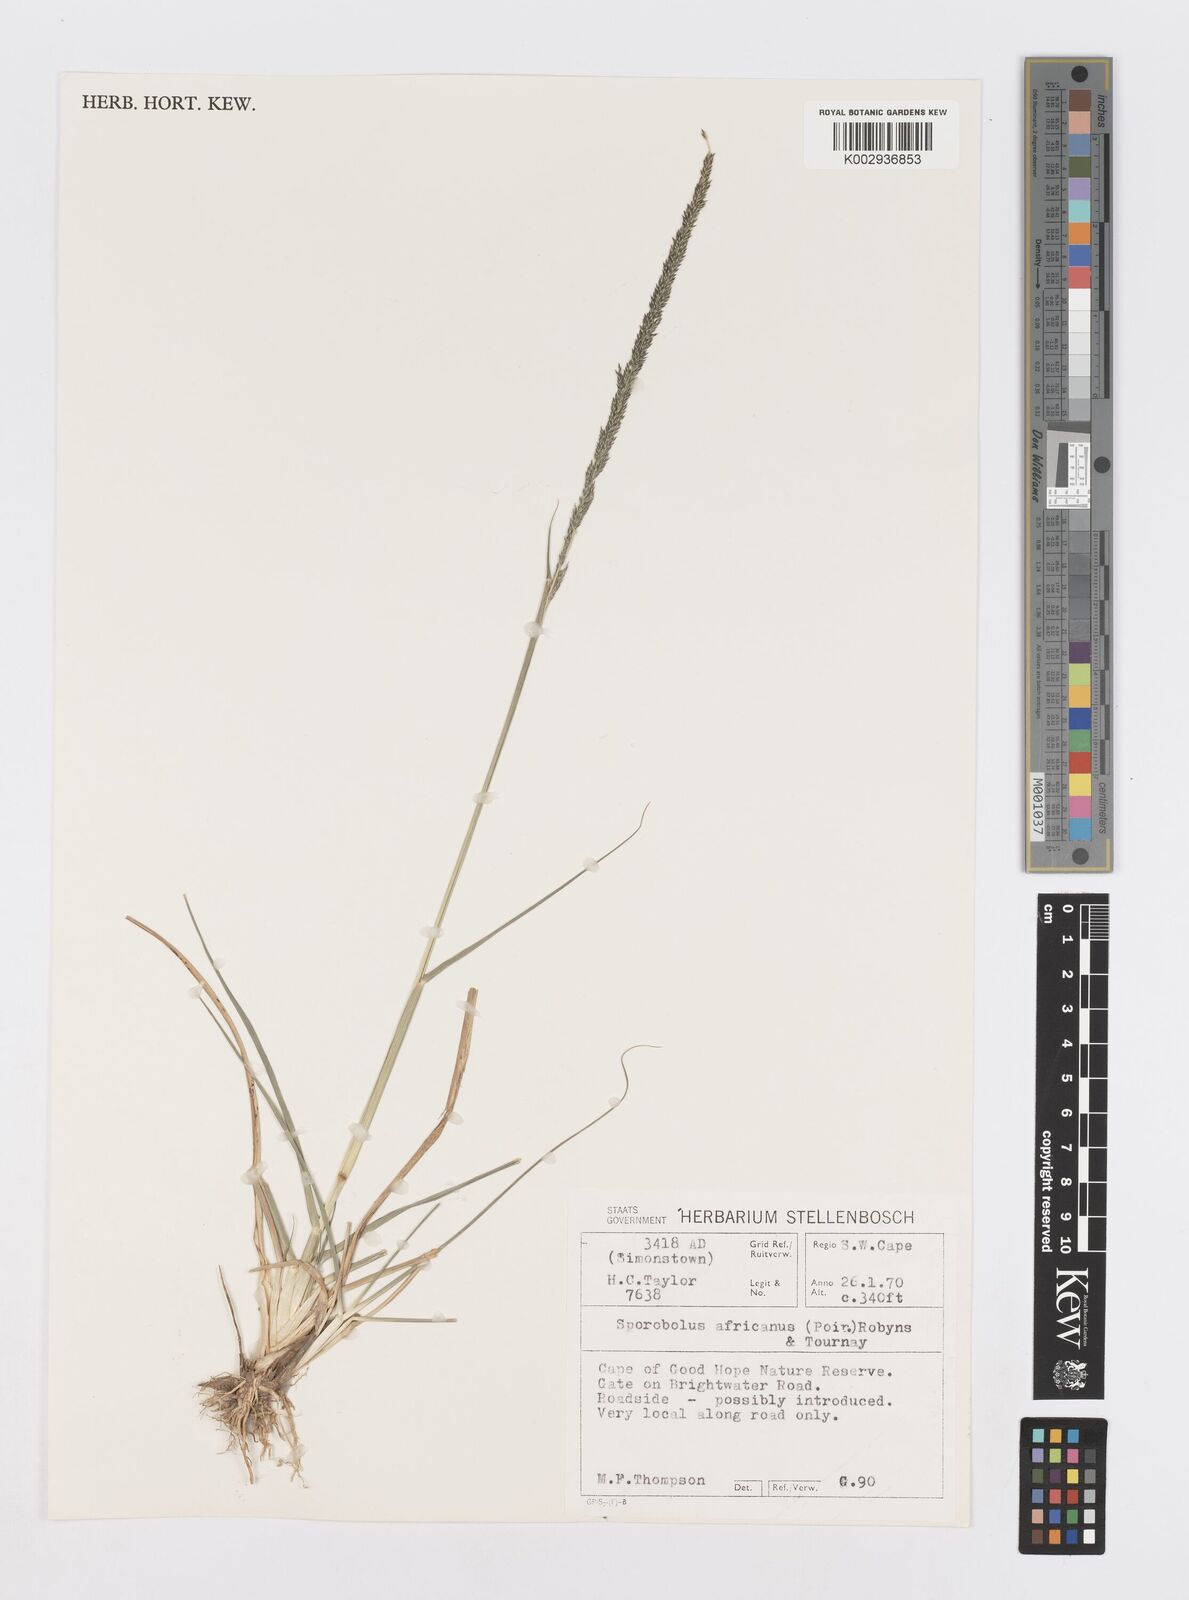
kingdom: Plantae
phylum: Tracheophyta
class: Liliopsida
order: Poales
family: Poaceae
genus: Sporobolus
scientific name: Sporobolus africanus
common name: African dropseed
